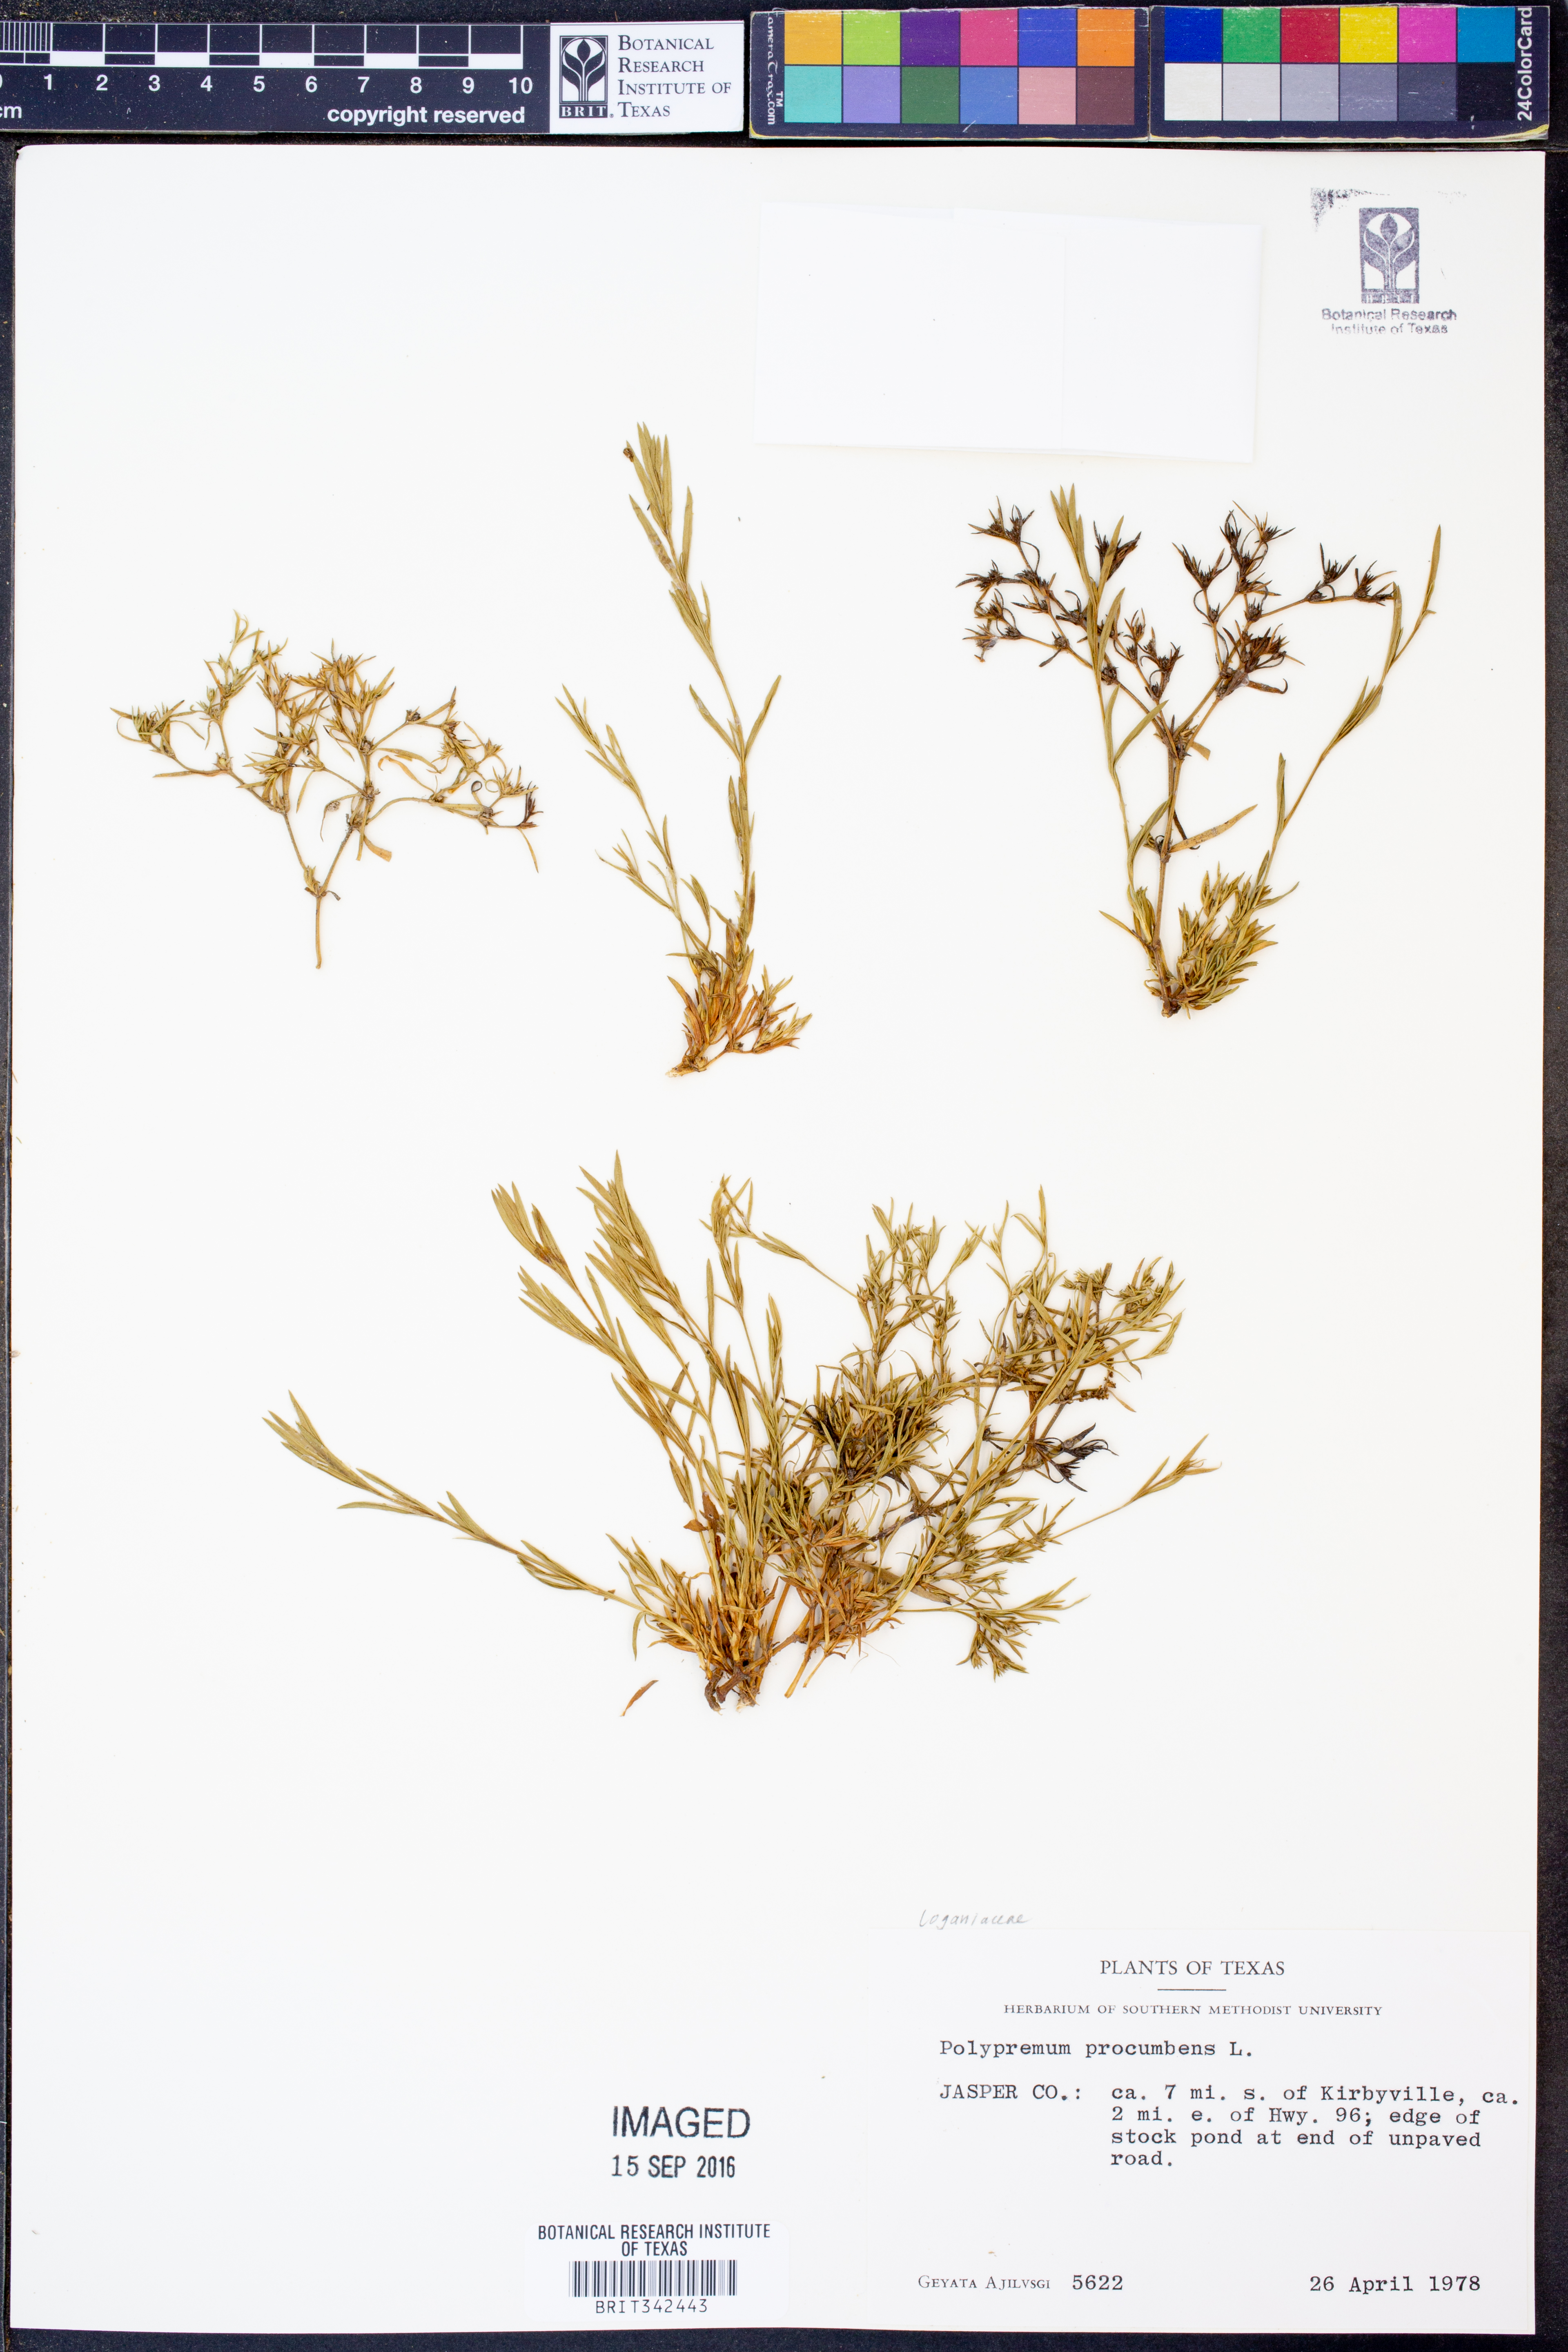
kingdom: Plantae
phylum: Tracheophyta
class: Magnoliopsida
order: Lamiales
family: Tetrachondraceae
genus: Polypremum
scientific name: Polypremum procumbens
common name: Juniper-leaf
